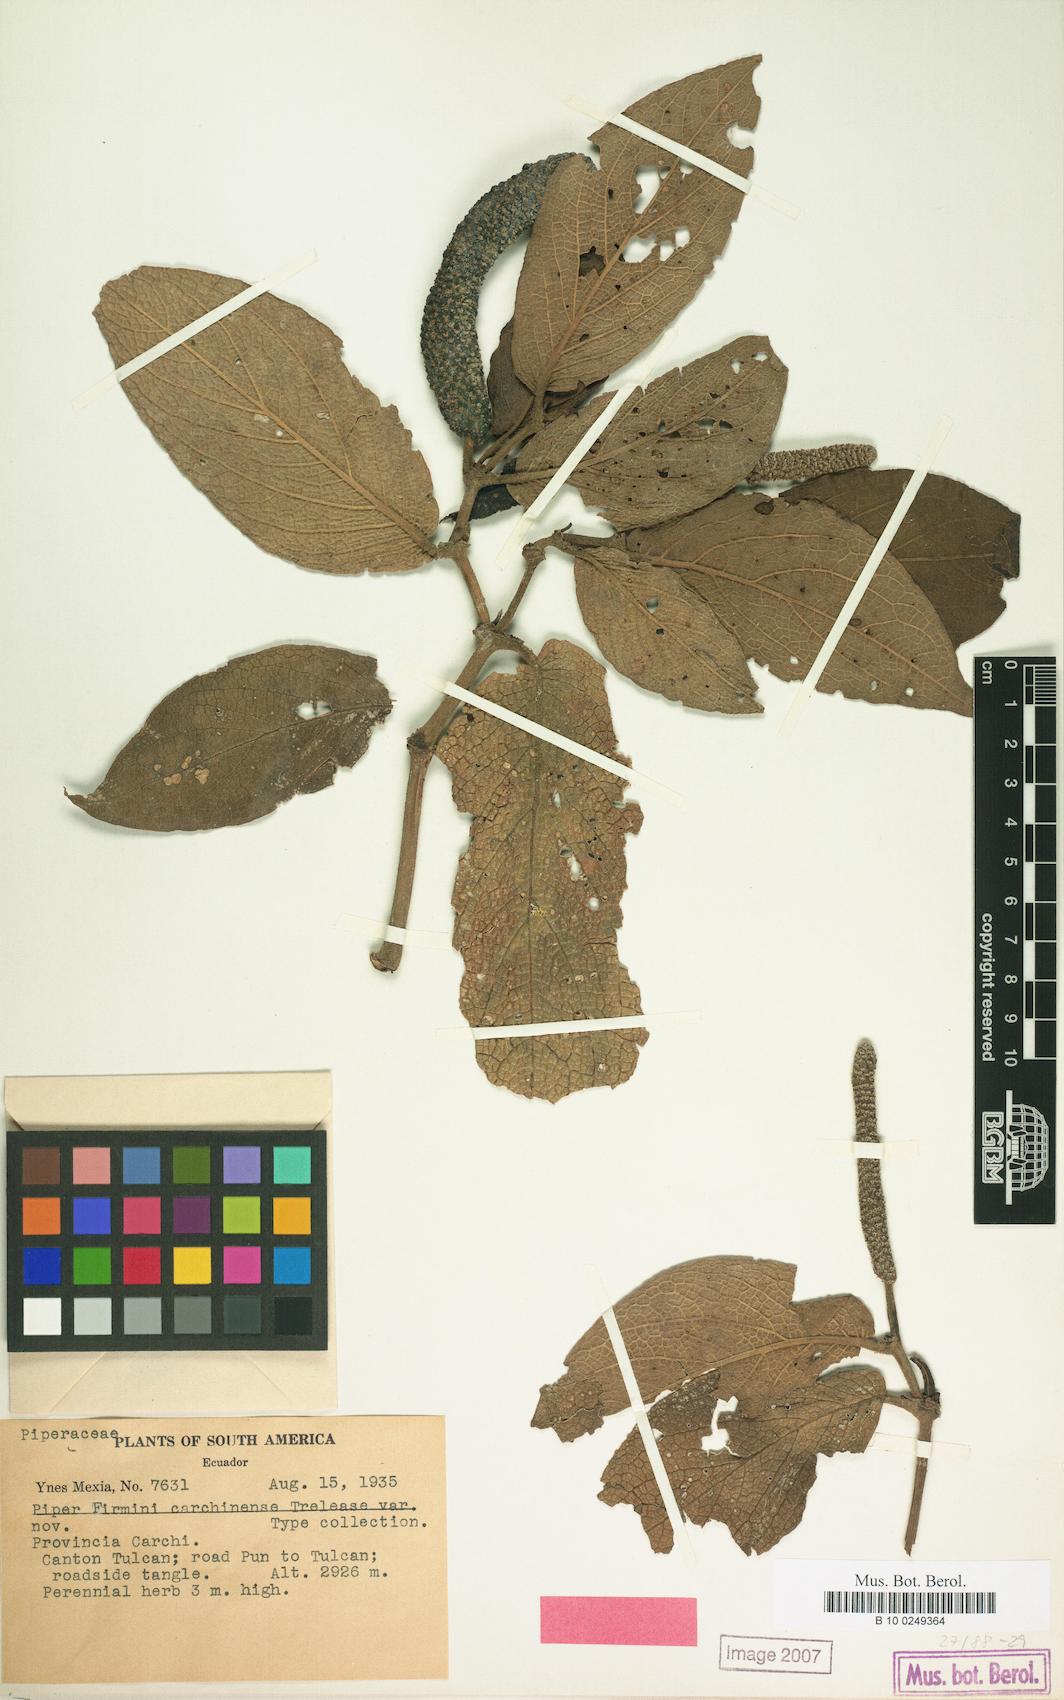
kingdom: Plantae
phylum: Tracheophyta
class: Magnoliopsida
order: Piperales
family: Piperaceae
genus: Piper
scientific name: Piper
